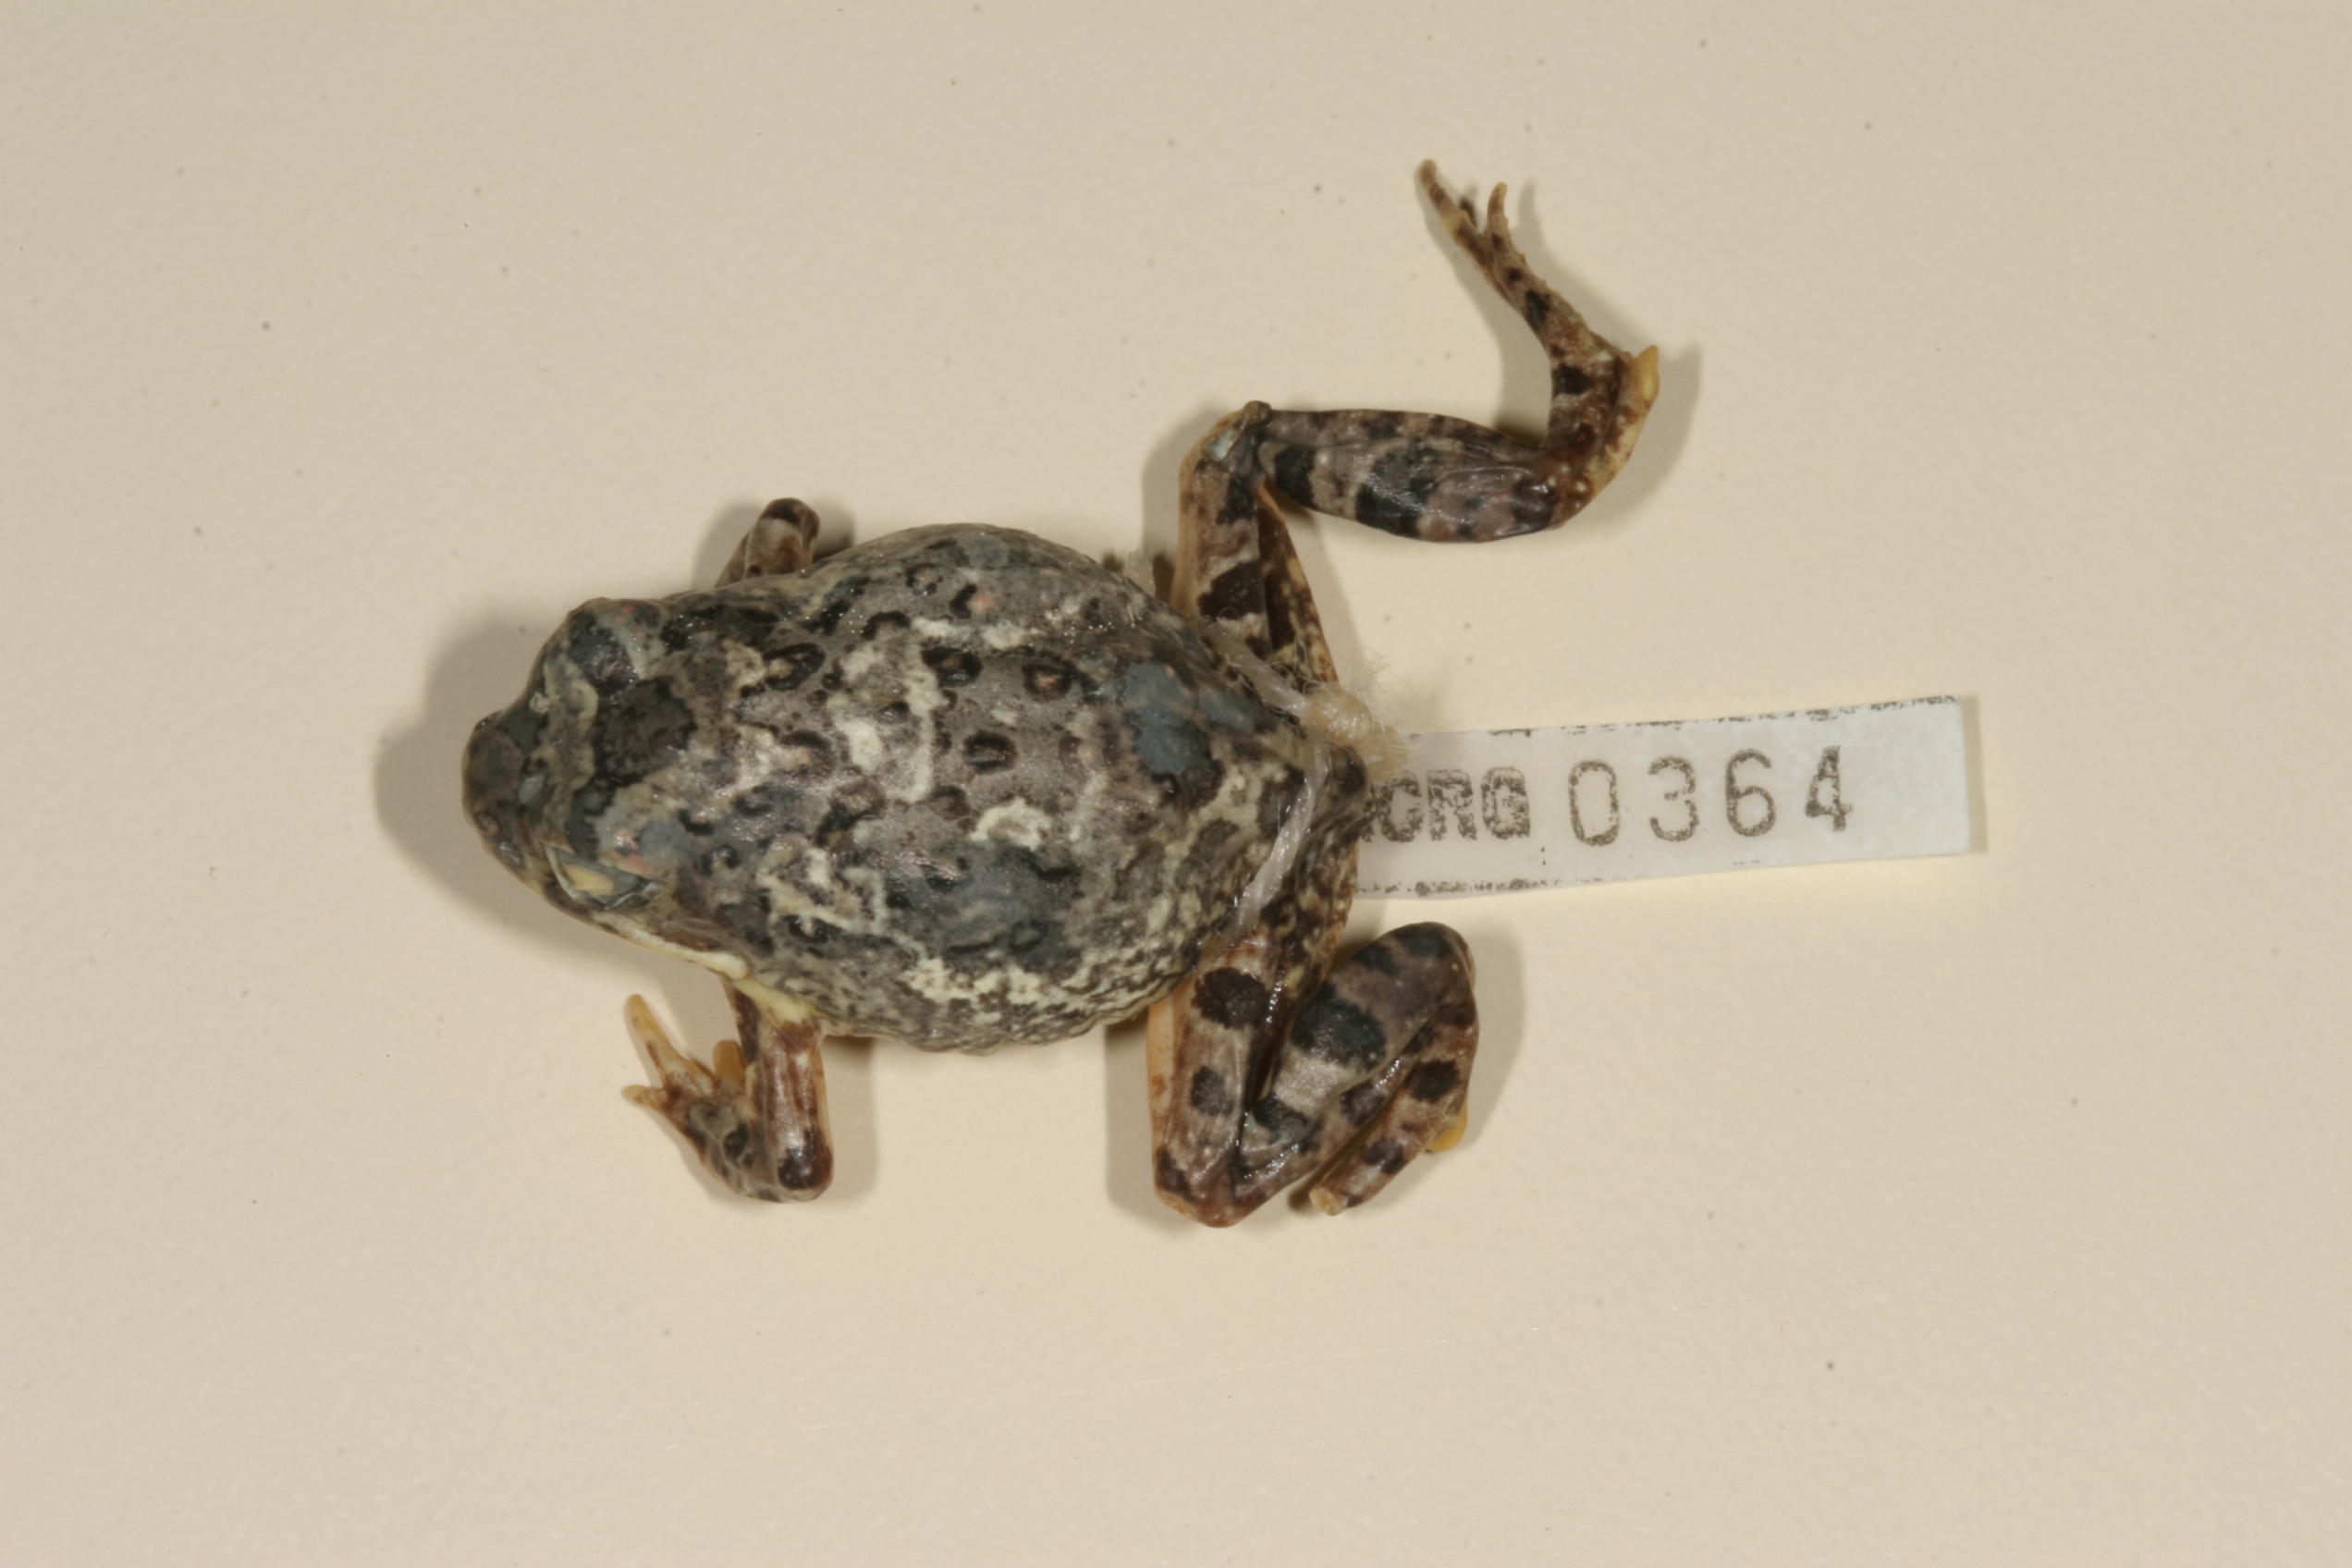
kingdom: Animalia
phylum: Chordata
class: Amphibia
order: Anura
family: Pyxicephalidae
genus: Tomopterna
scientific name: Tomopterna cryptotis
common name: Catequero bullfrog
